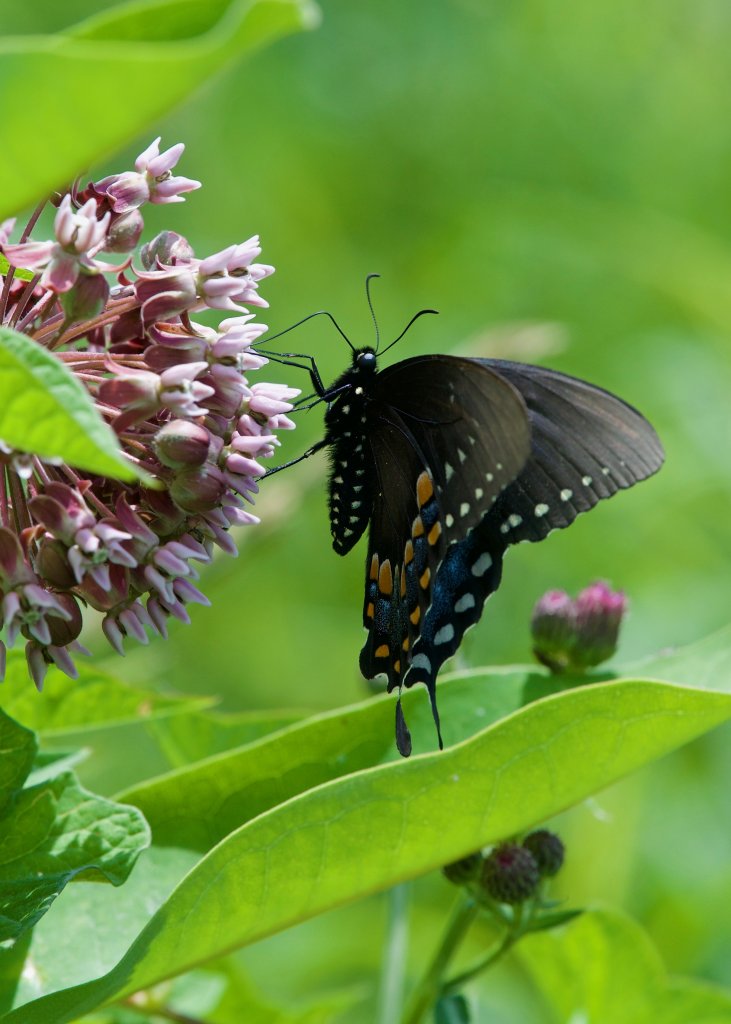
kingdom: Animalia
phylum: Arthropoda
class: Insecta
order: Lepidoptera
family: Papilionidae
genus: Pterourus
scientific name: Pterourus troilus
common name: Spicebush Swallowtail
